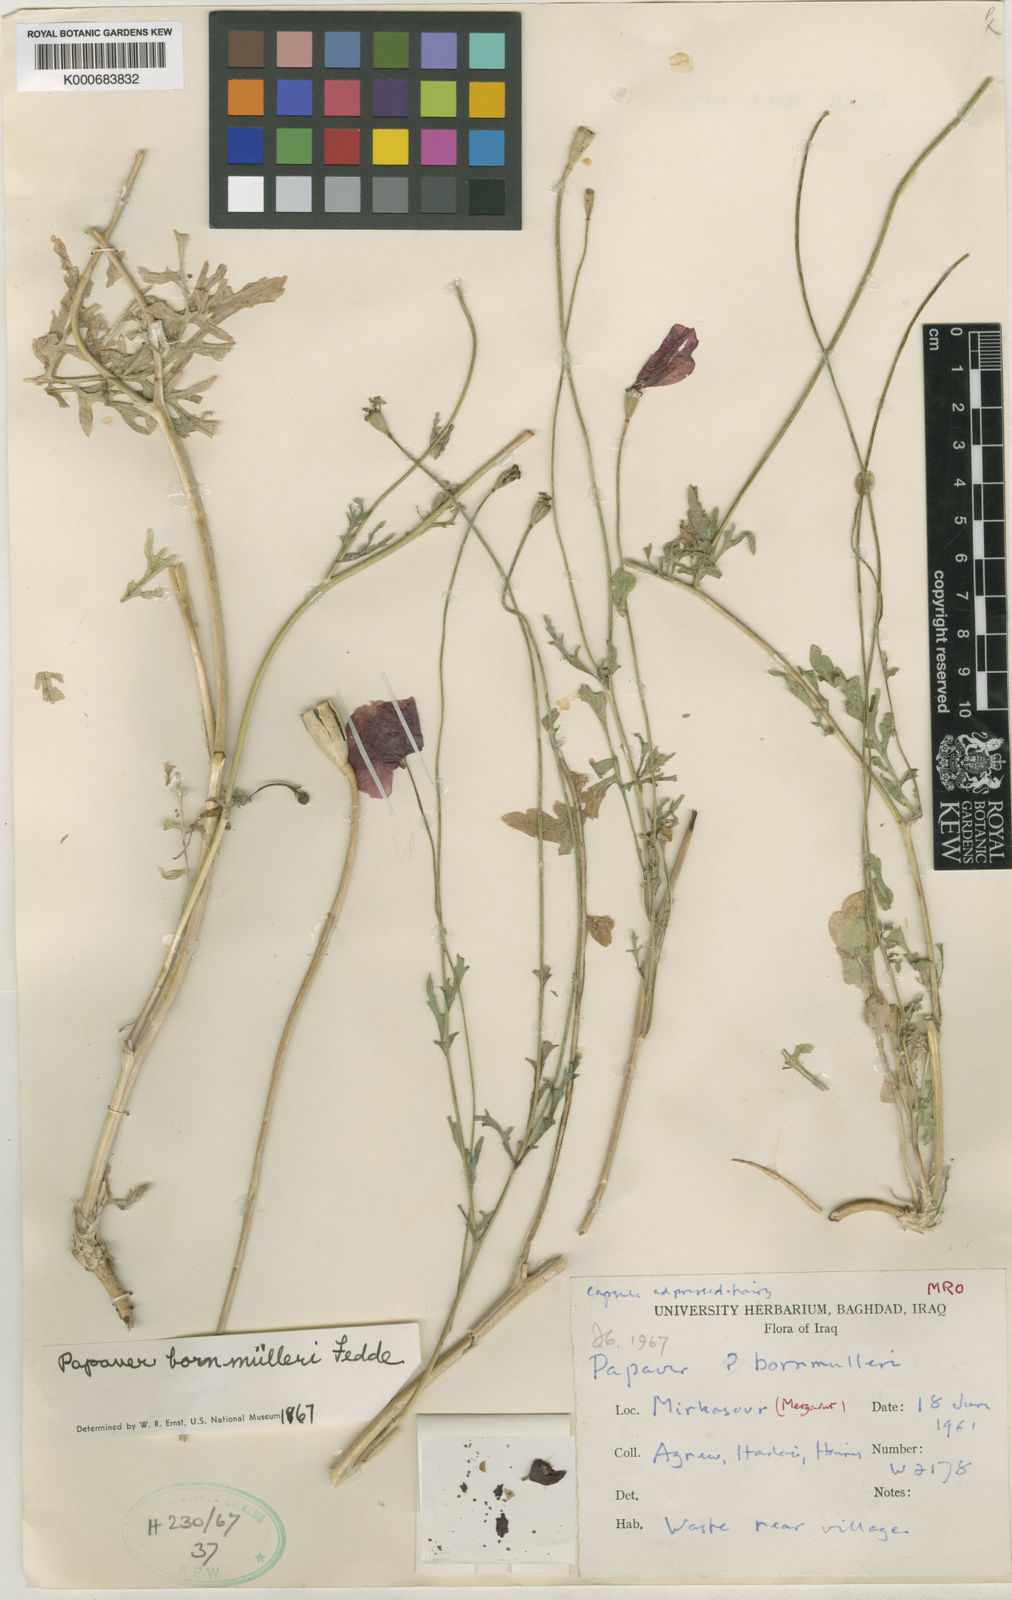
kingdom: Plantae
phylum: Tracheophyta
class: Magnoliopsida
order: Ranunculales
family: Papaveraceae
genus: Papaver
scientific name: Papaver macrostomum
